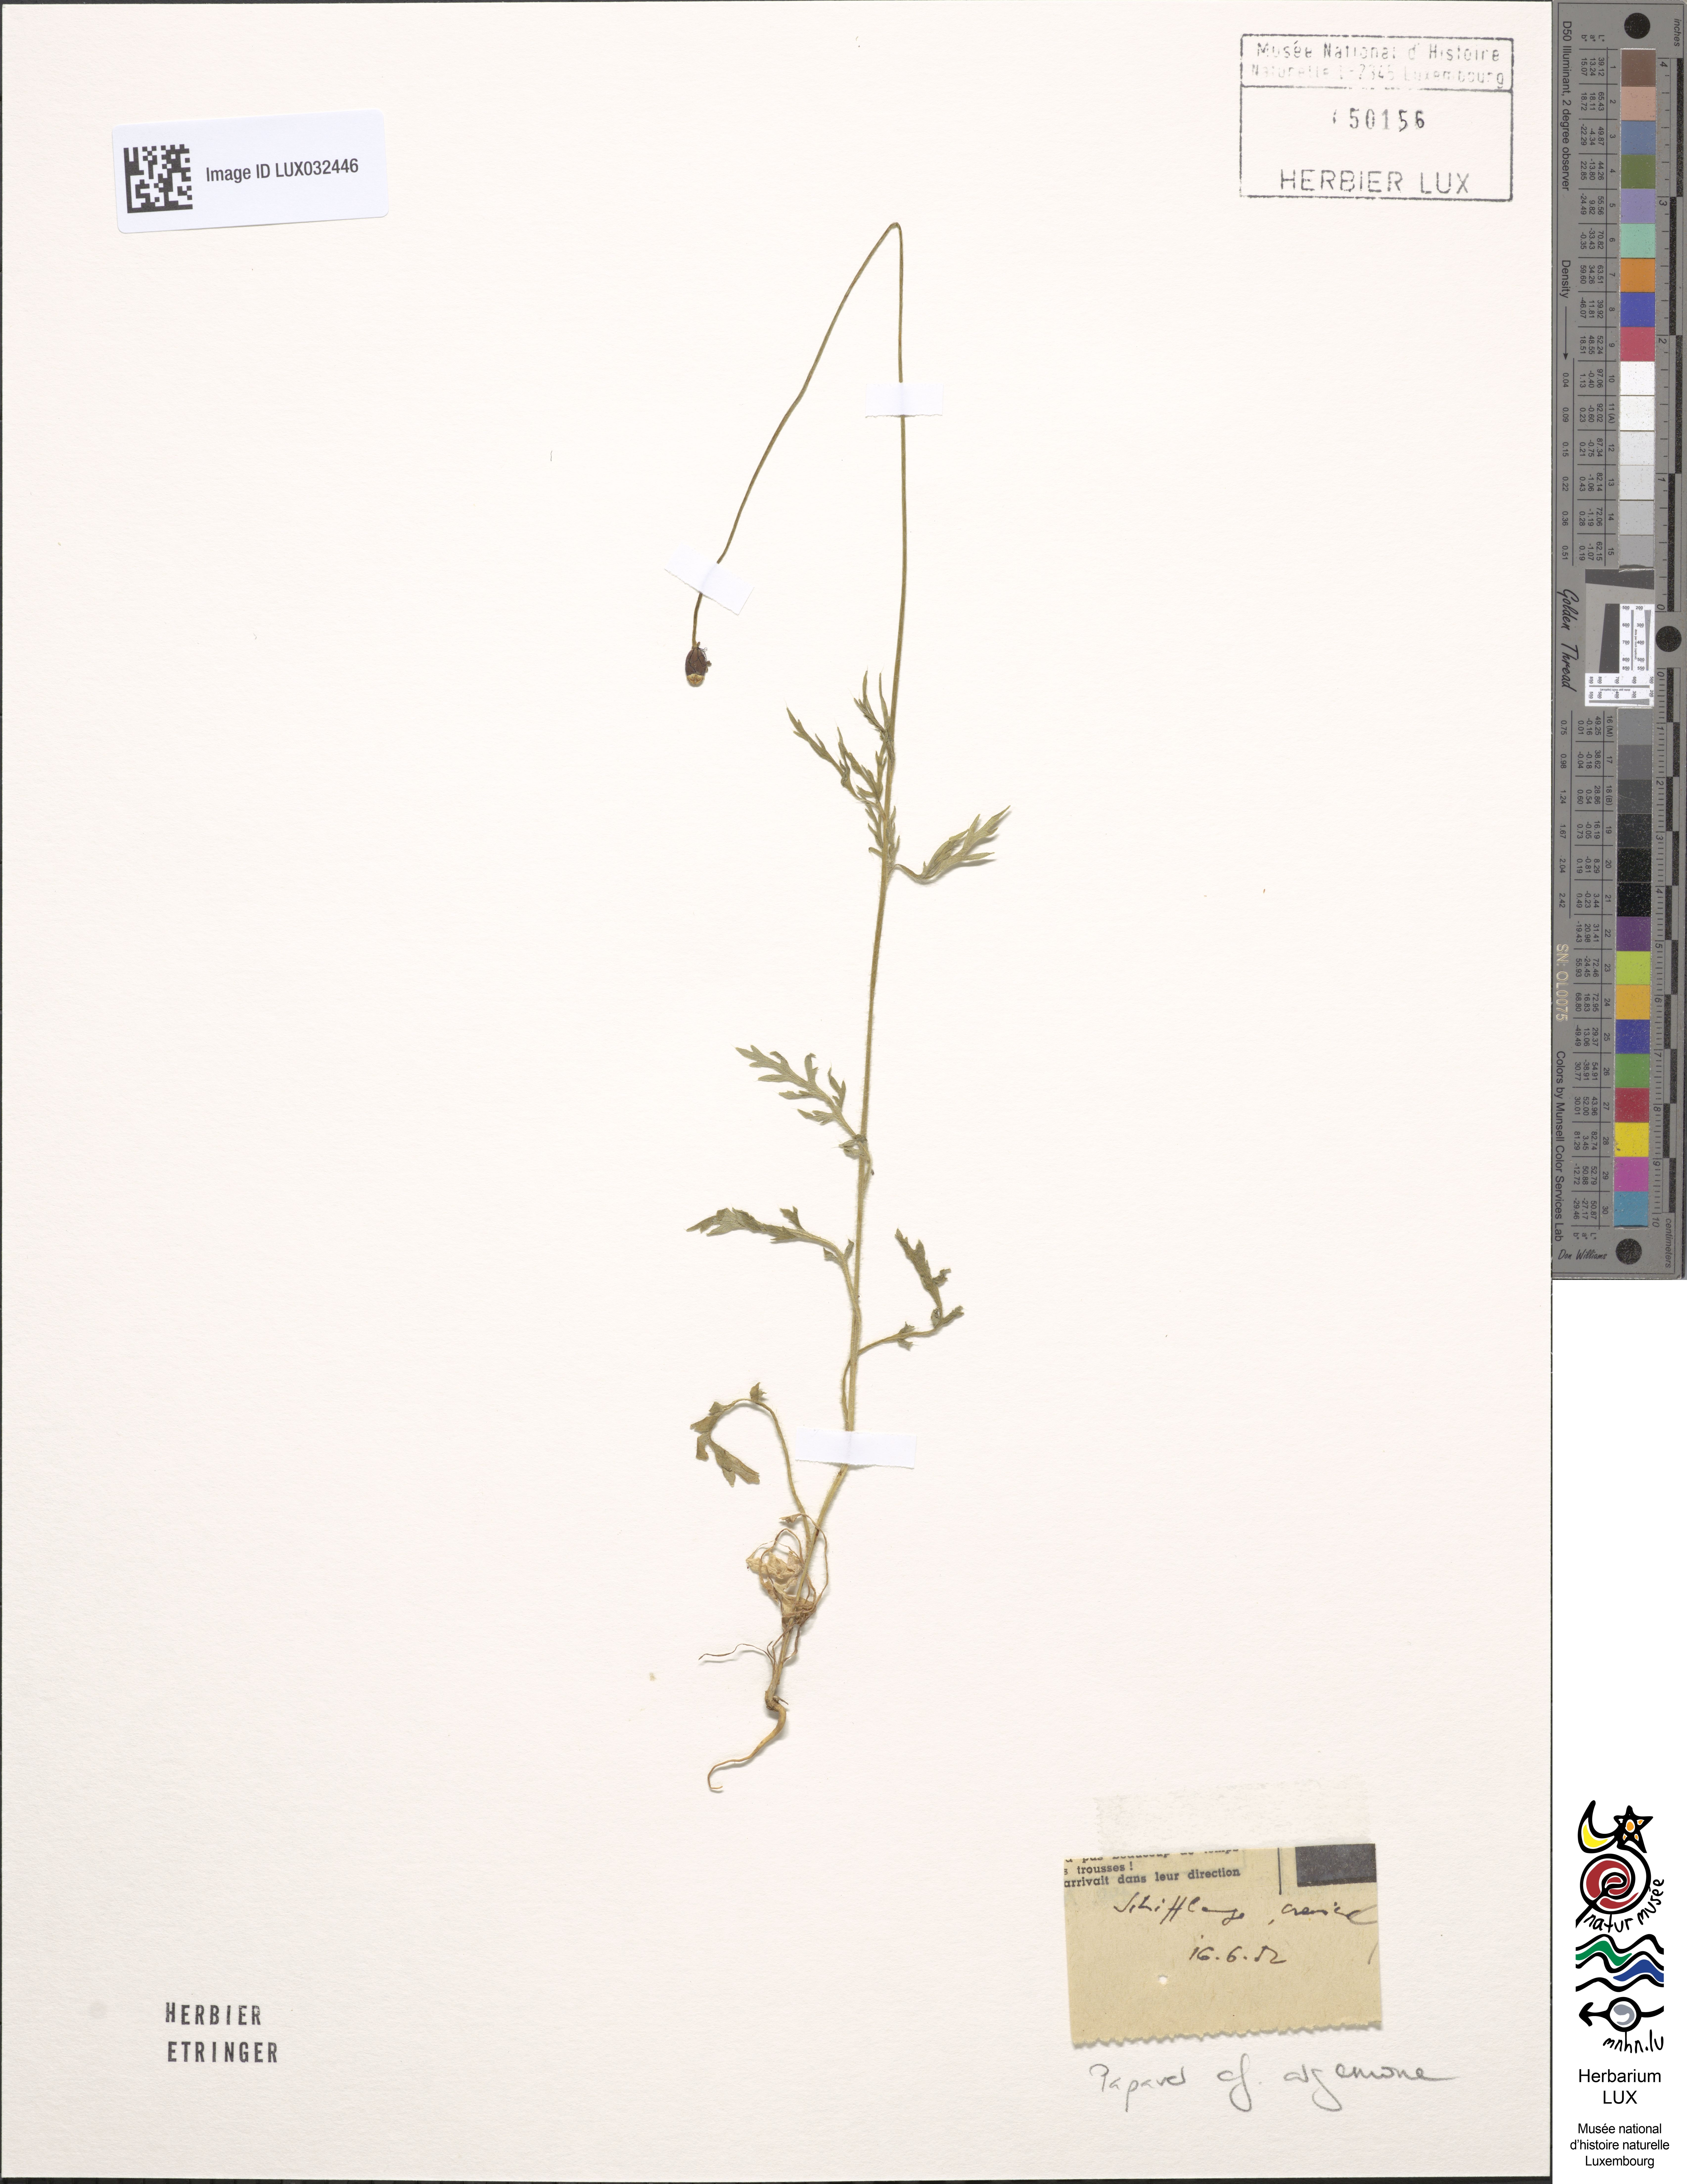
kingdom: Plantae
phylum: Tracheophyta
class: Magnoliopsida
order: Ranunculales
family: Papaveraceae
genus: Roemeria
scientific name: Roemeria argemone
